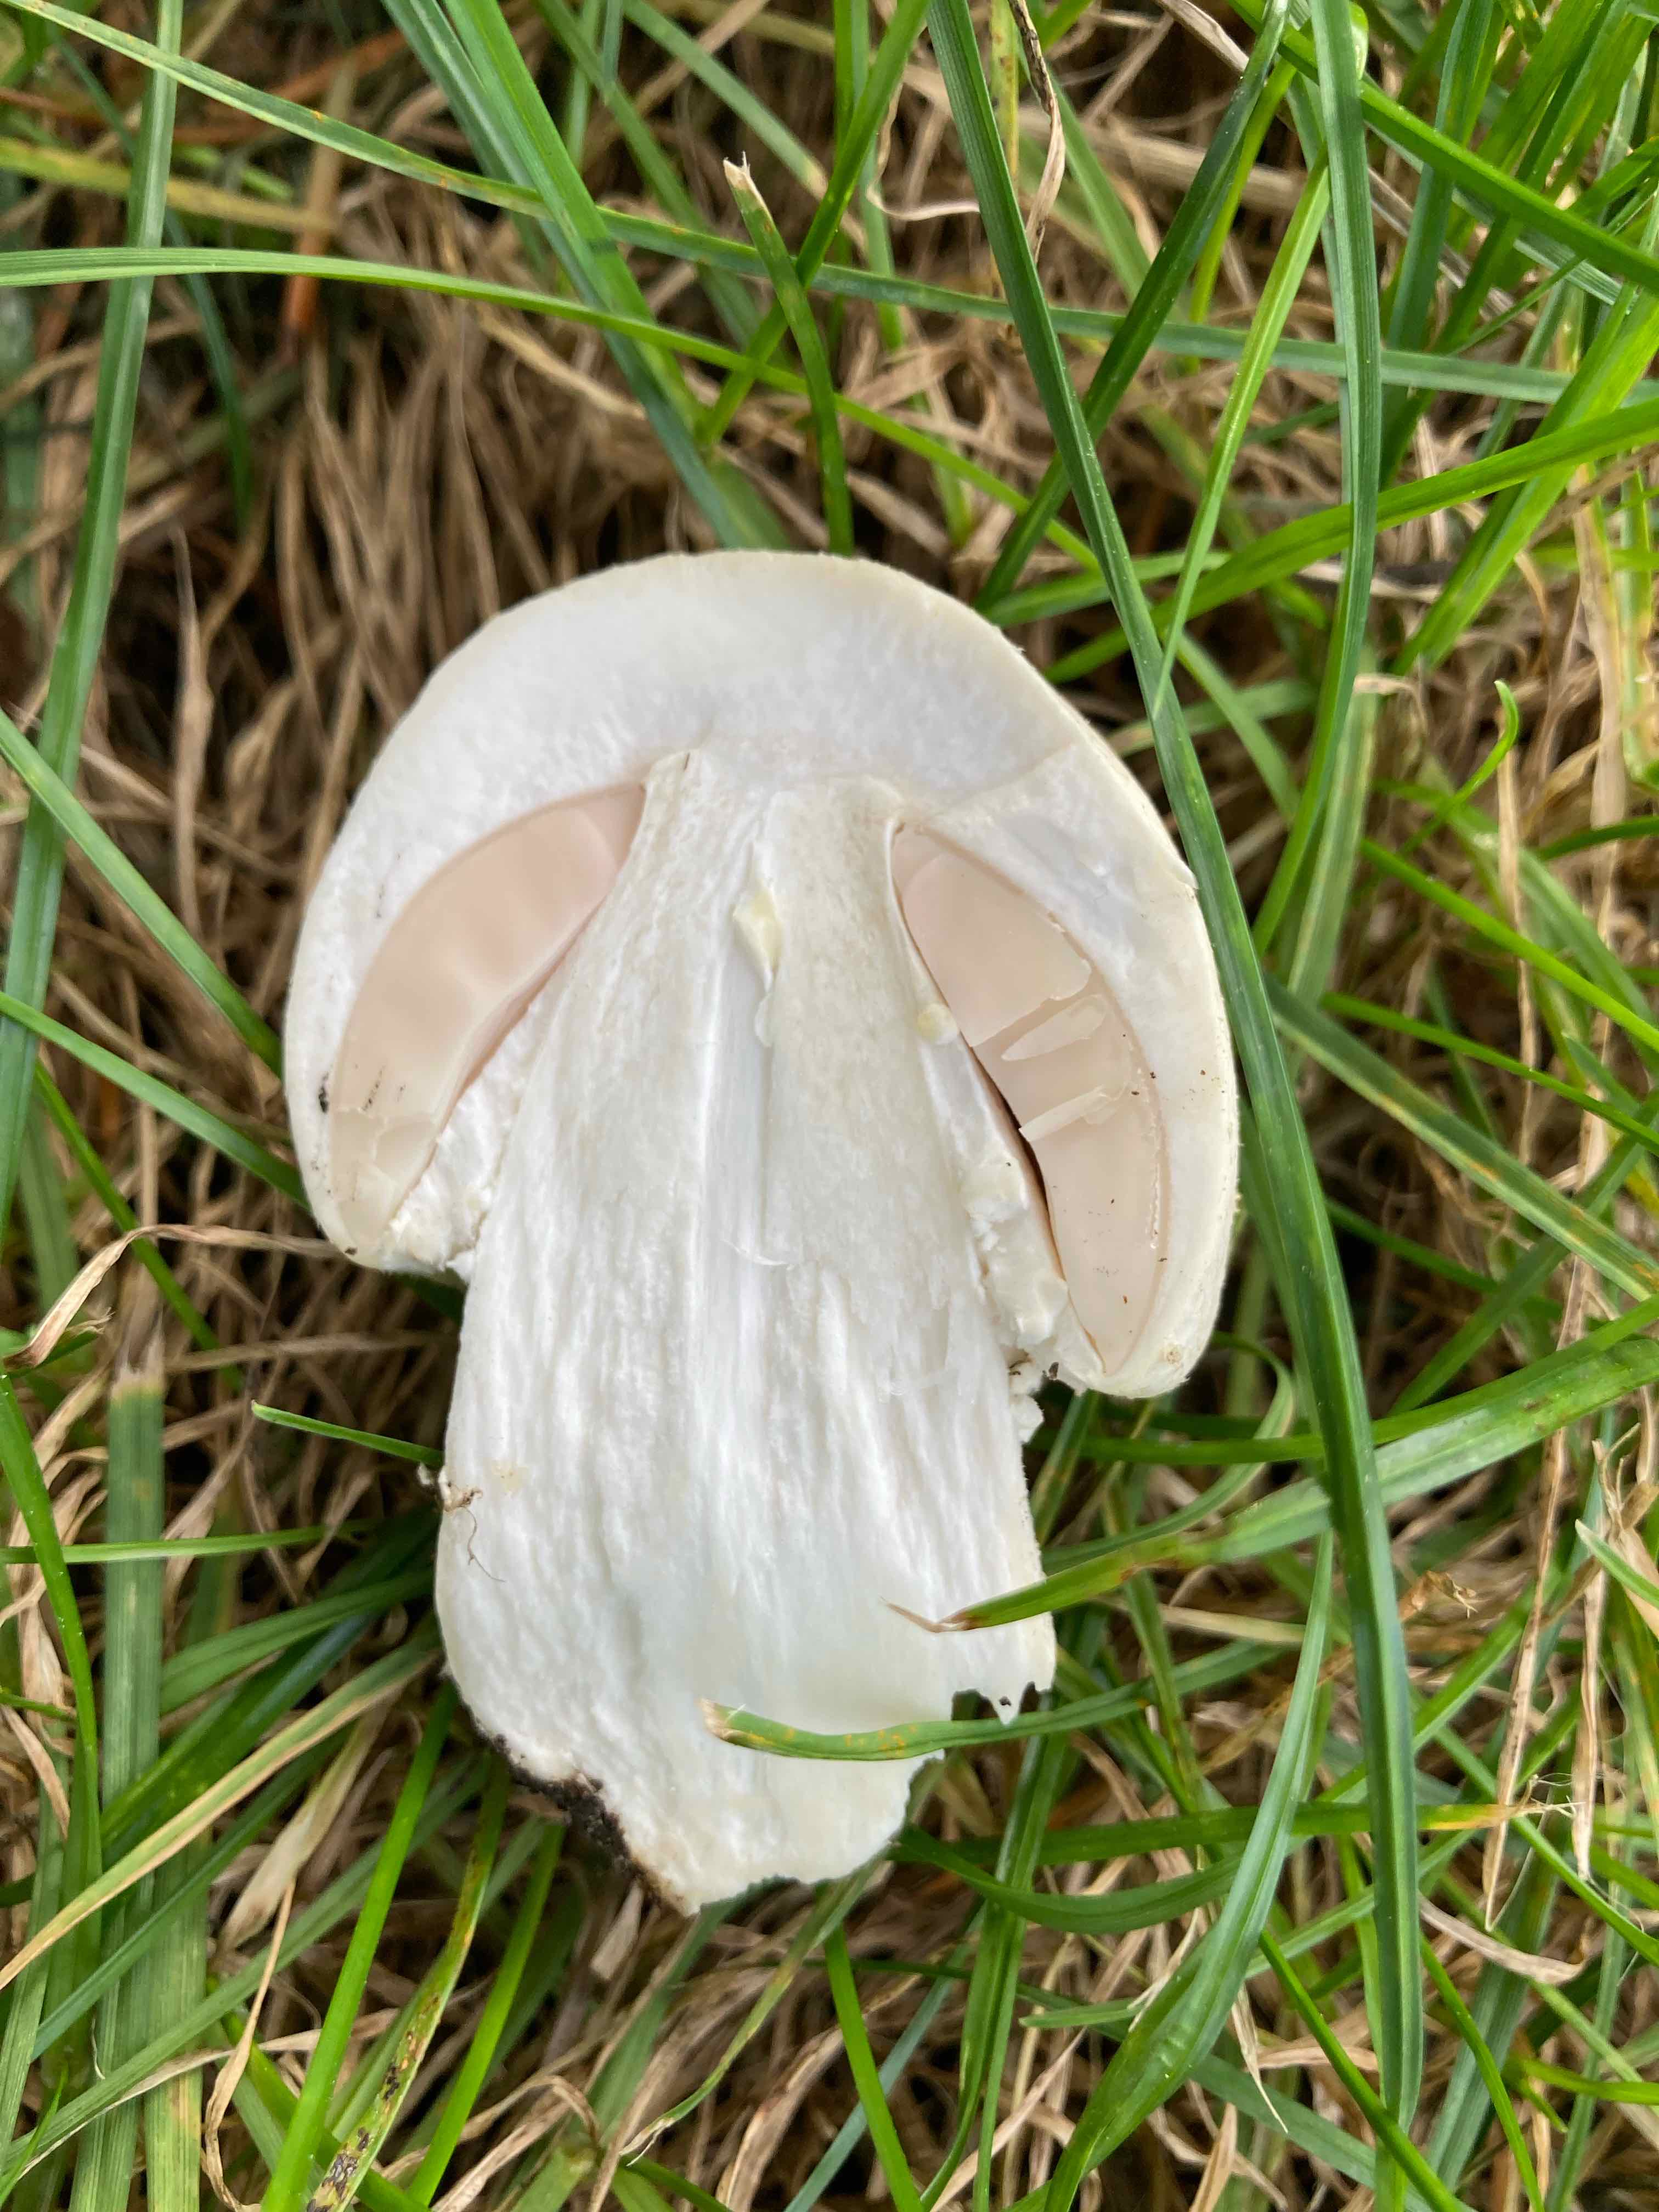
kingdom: Fungi
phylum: Basidiomycota
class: Agaricomycetes
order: Agaricales
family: Agaricaceae
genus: Agaricus
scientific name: Agaricus
